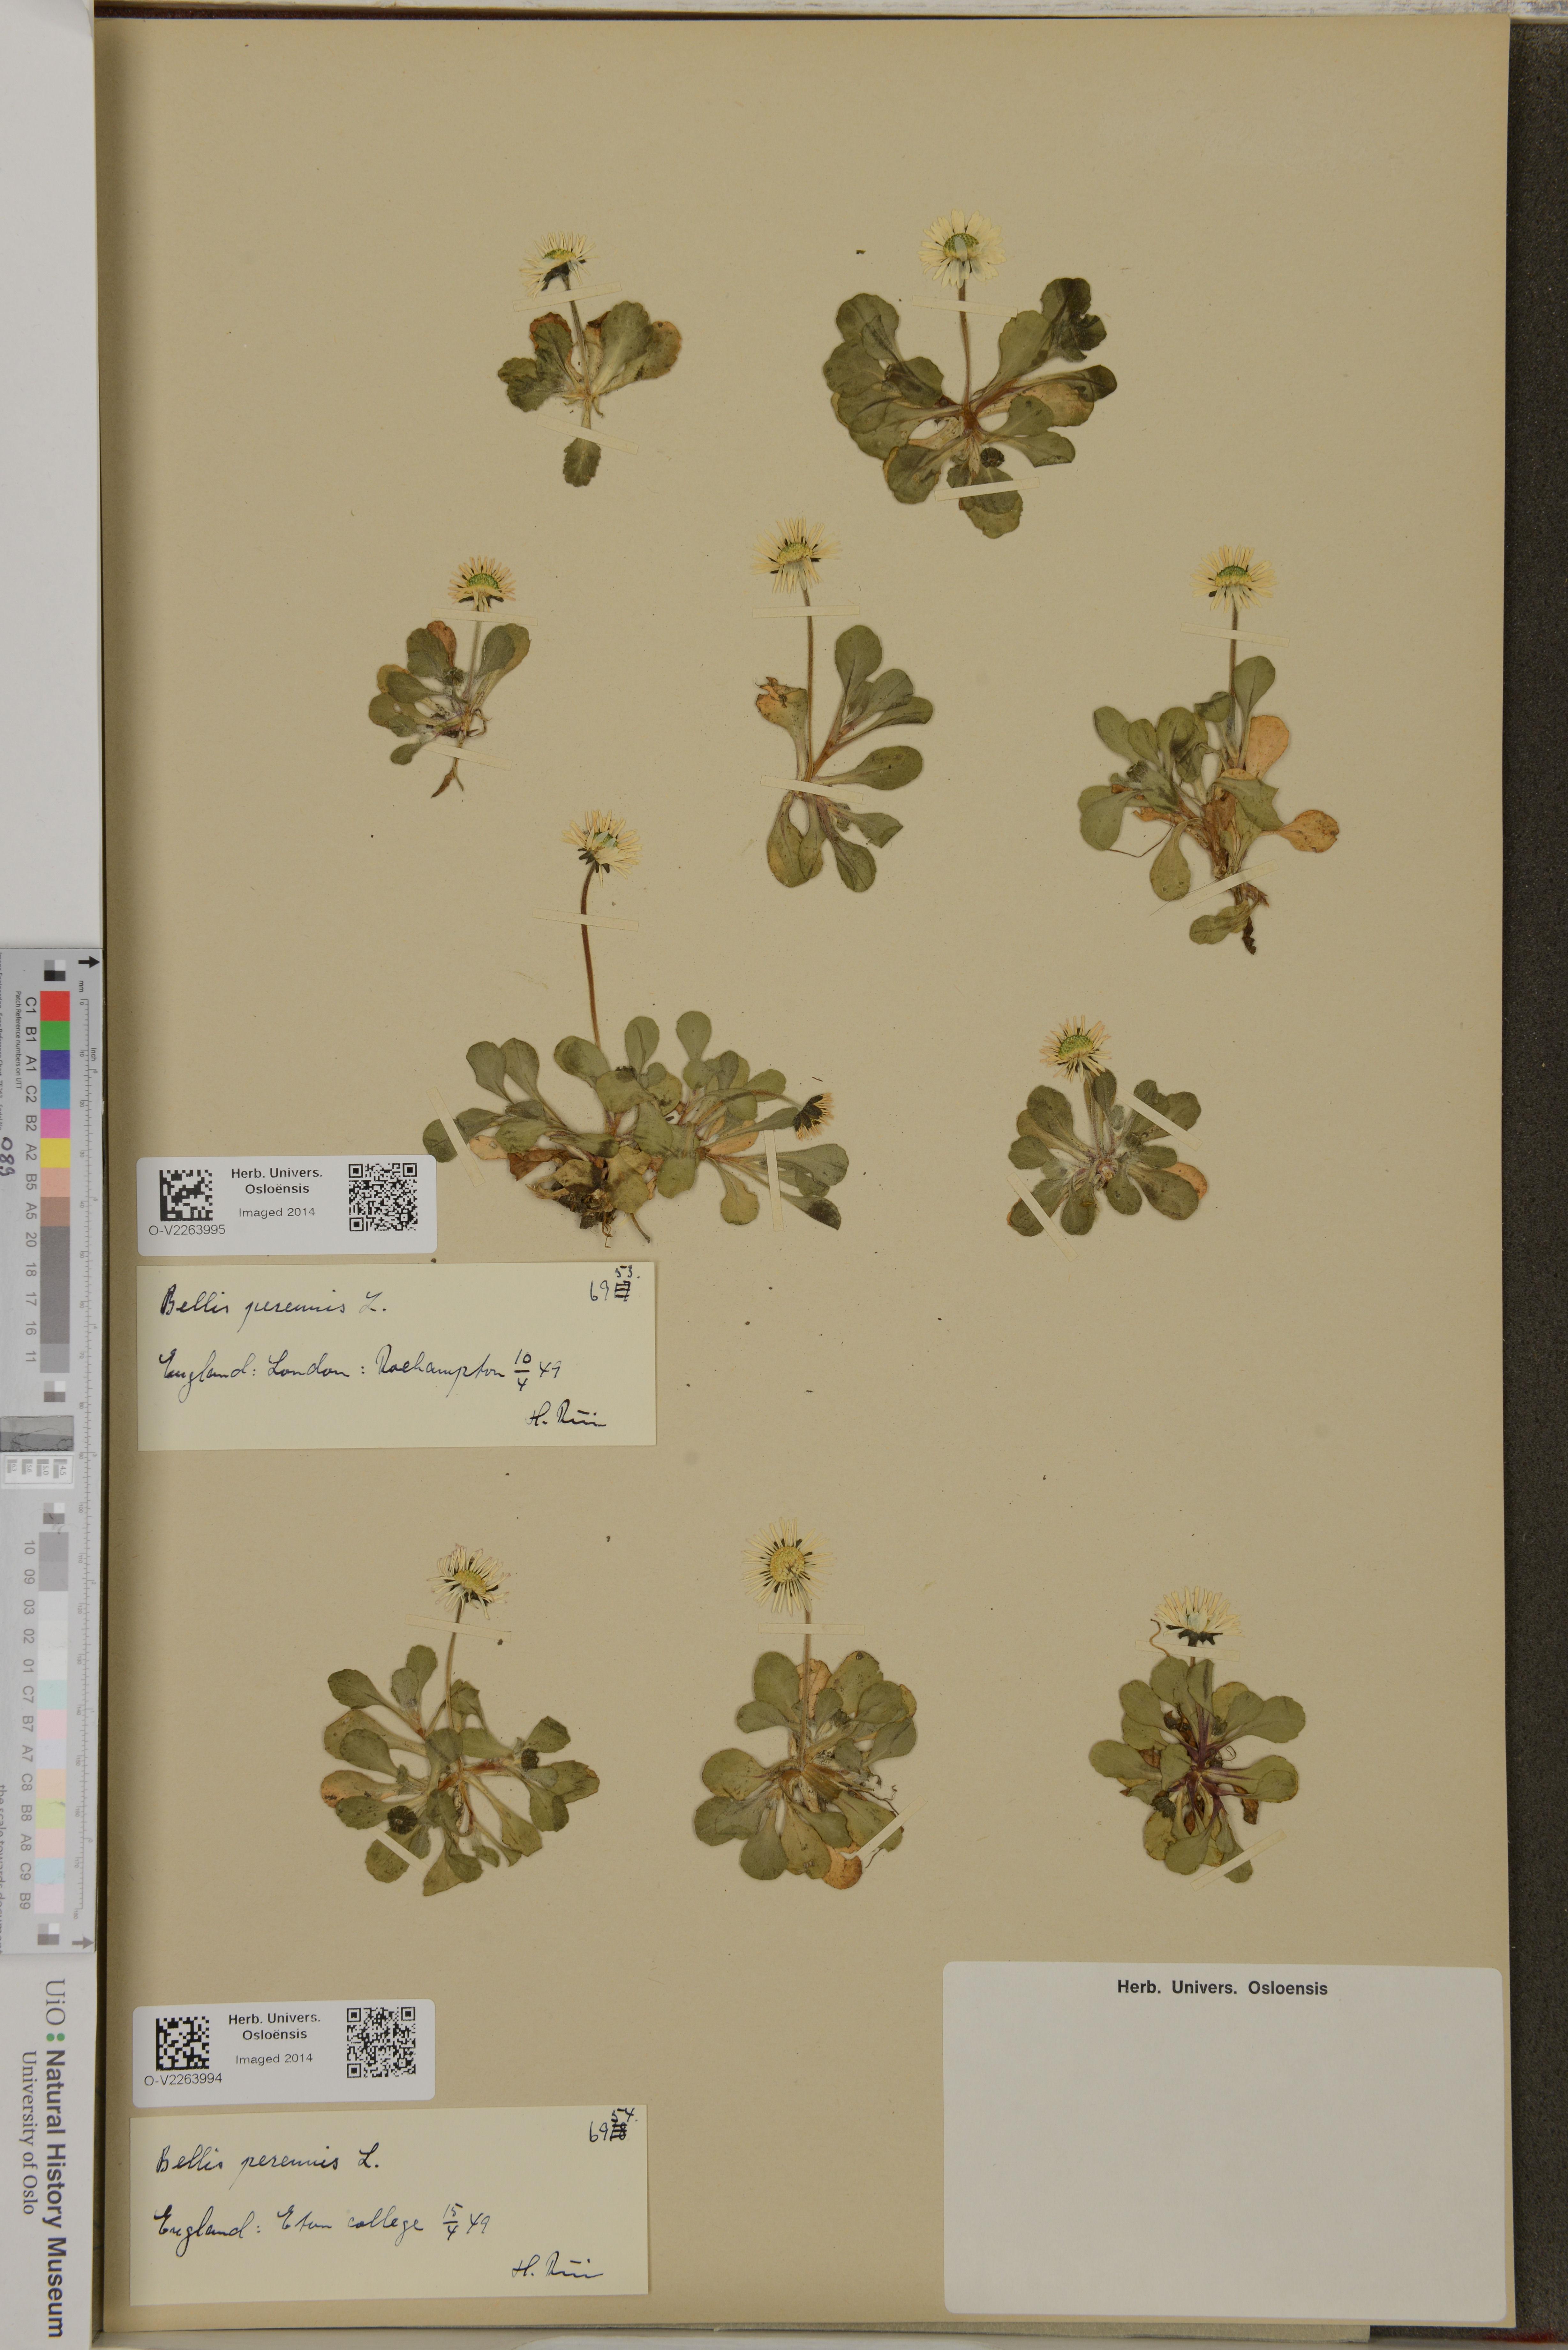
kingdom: Plantae
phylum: Tracheophyta
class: Magnoliopsida
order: Asterales
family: Asteraceae
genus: Bellis
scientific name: Bellis perennis
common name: Lawndaisy
